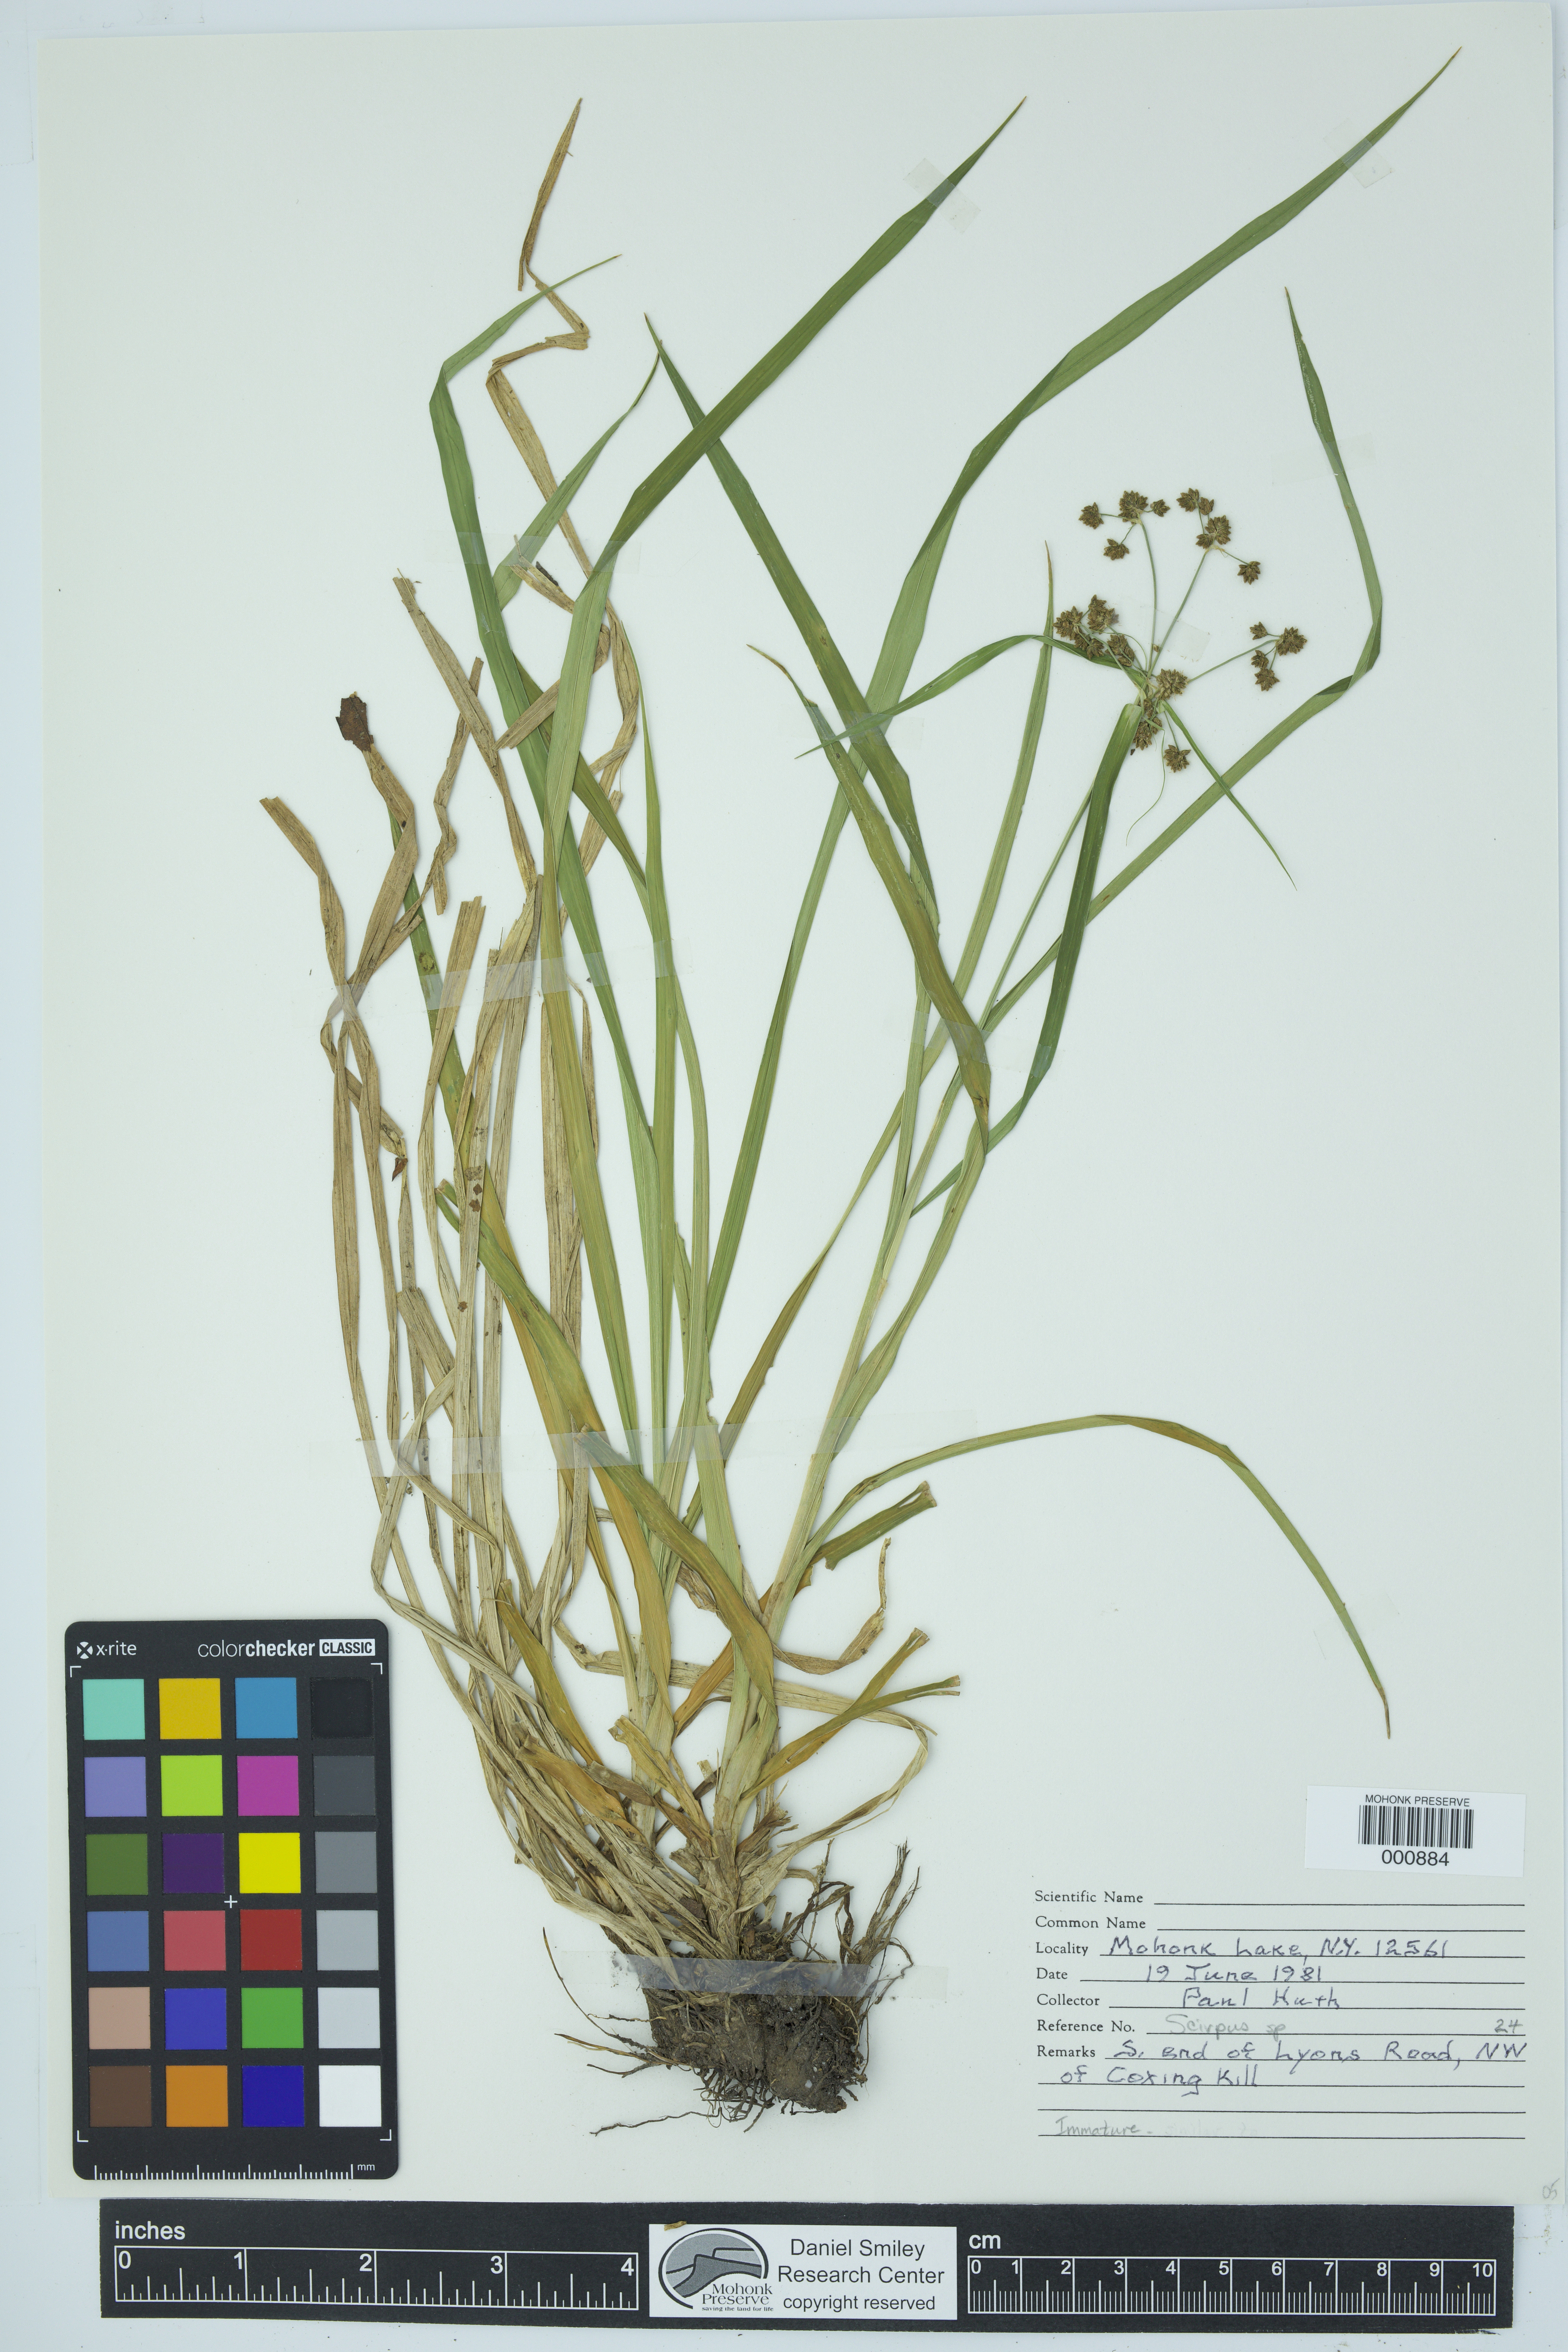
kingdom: Plantae
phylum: Tracheophyta
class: Liliopsida
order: Poales
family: Cyperaceae
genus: Scirpus
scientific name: Scirpus
